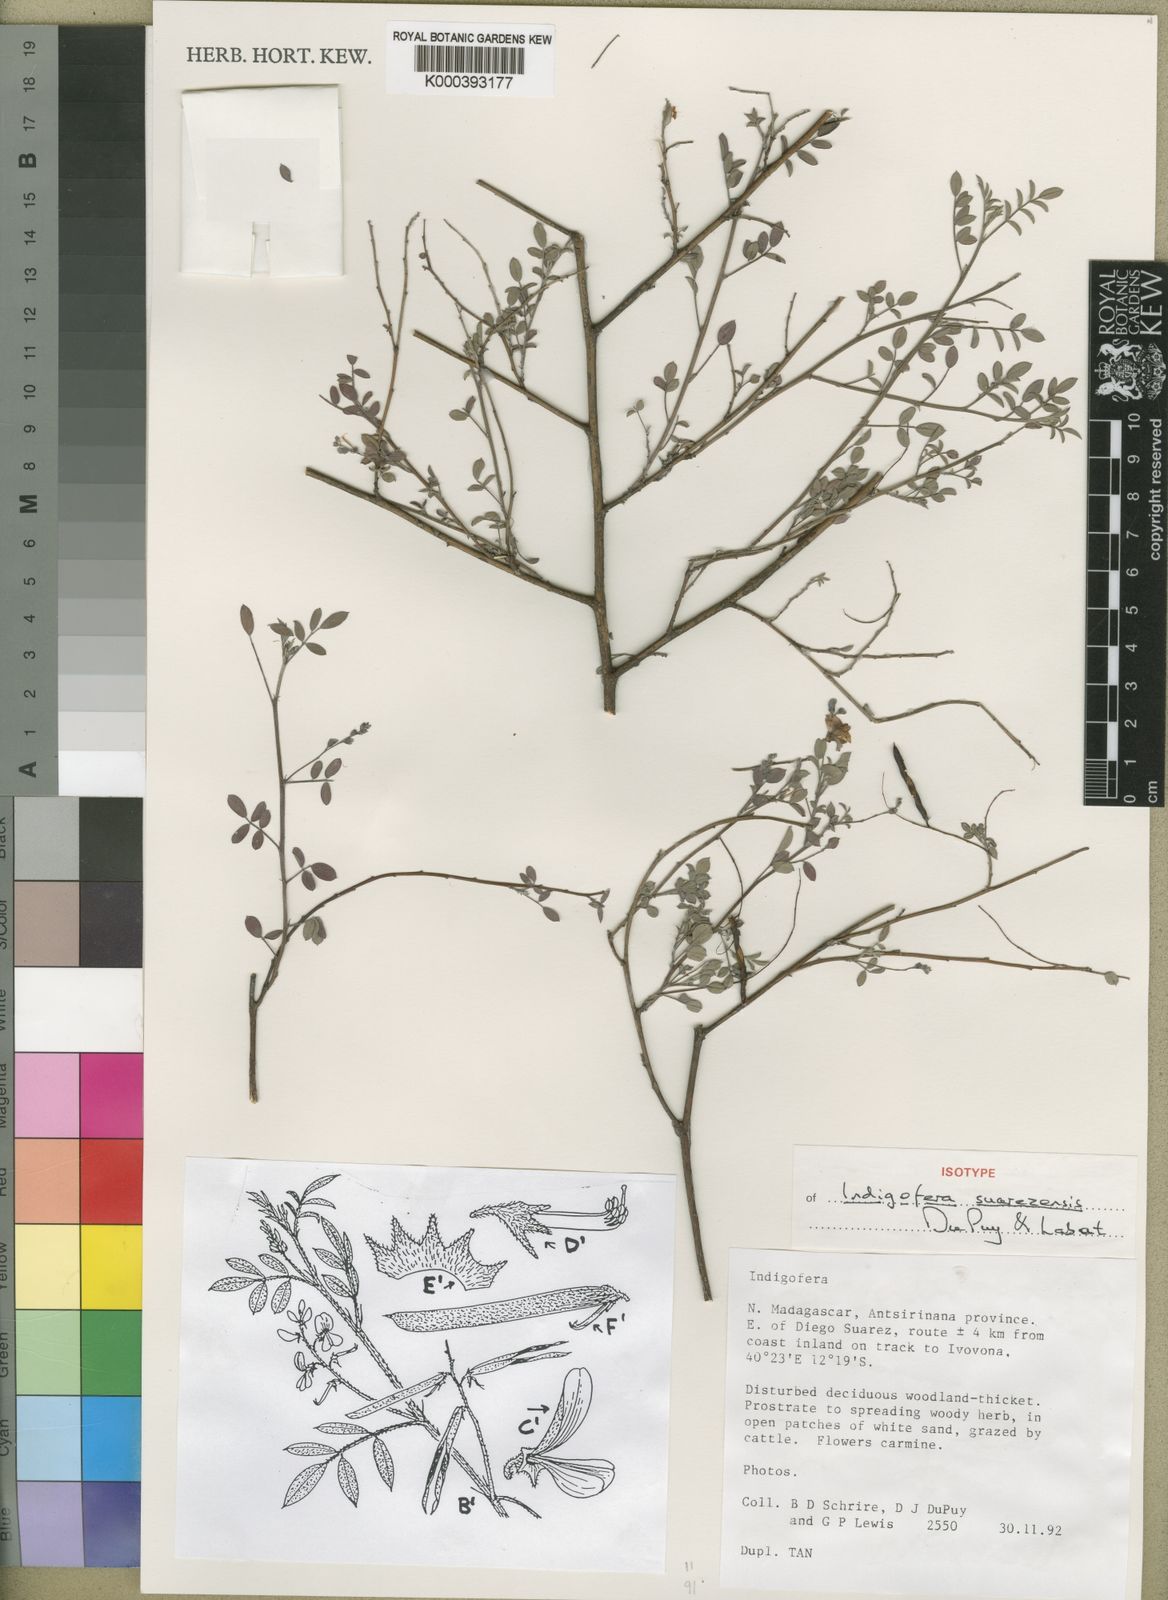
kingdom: Plantae
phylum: Tracheophyta
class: Magnoliopsida
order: Fabales
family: Fabaceae
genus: Indigofera
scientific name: Indigofera suarezensis
